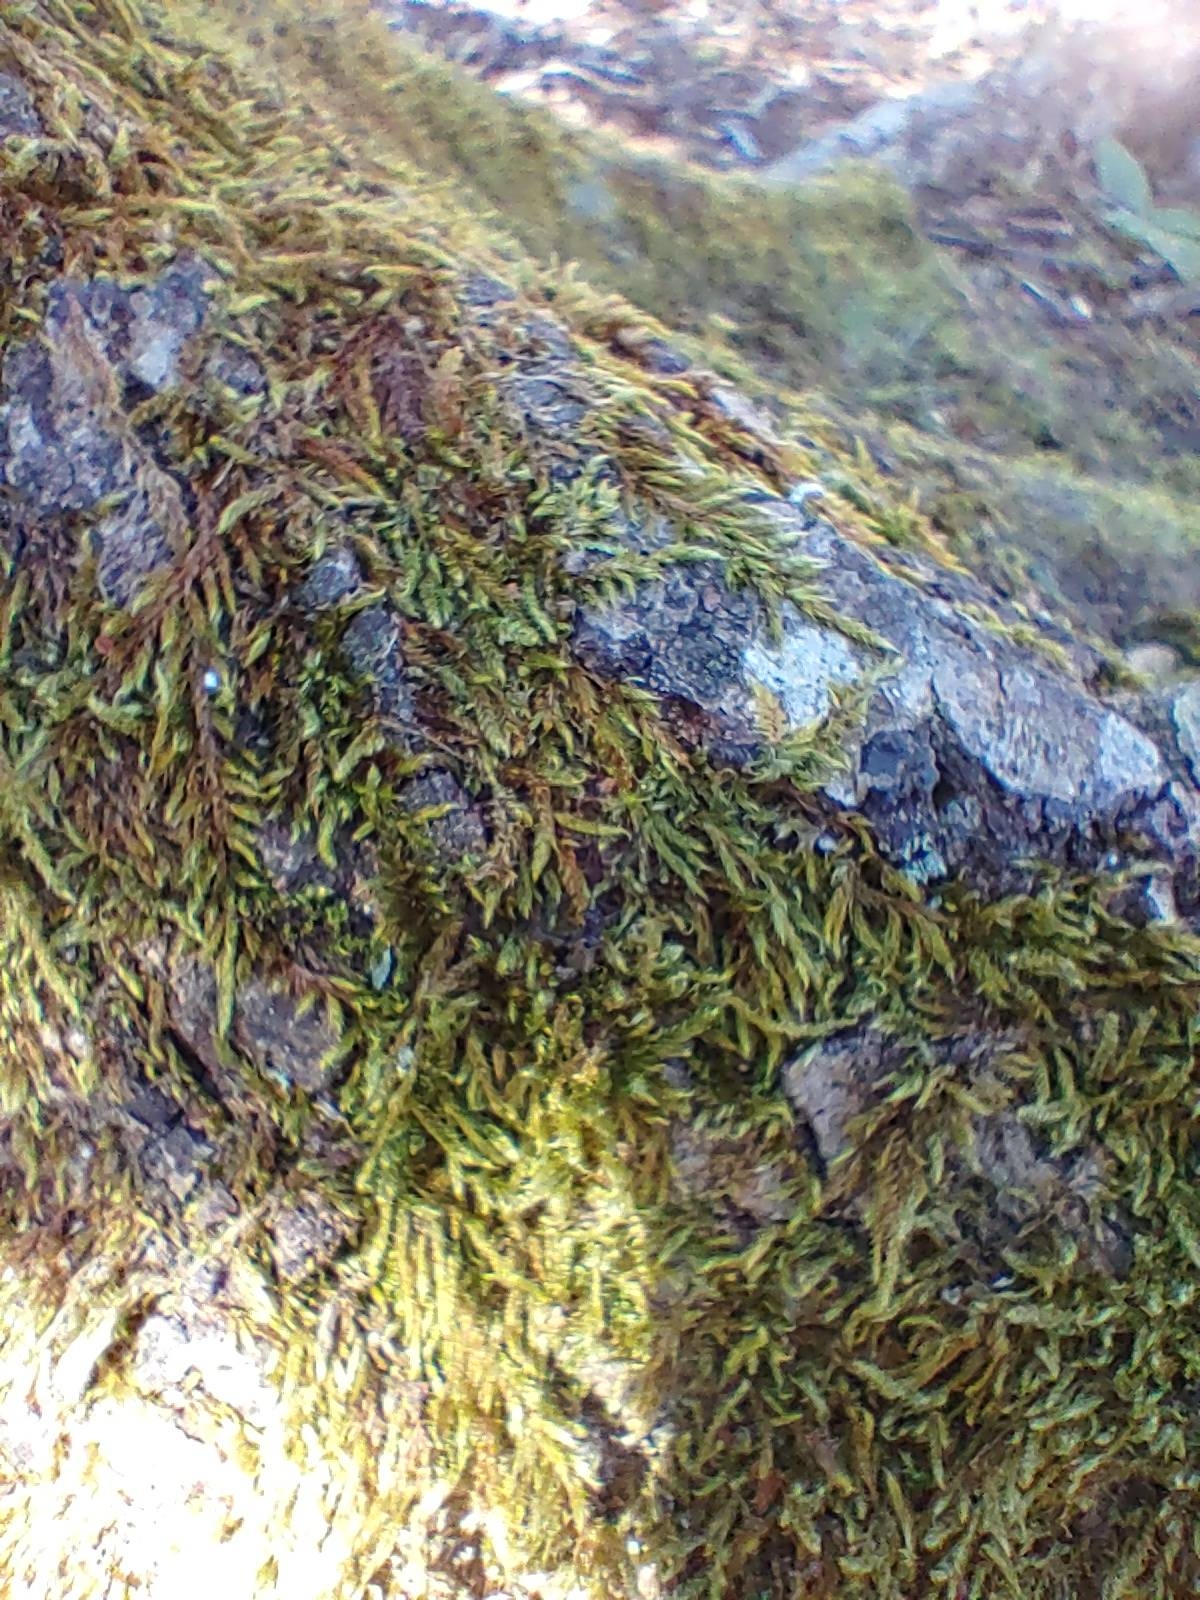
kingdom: Plantae
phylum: Bryophyta
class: Bryopsida
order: Hypnales
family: Hypnaceae
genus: Hypnum
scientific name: Hypnum cupressiforme
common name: Almindelig cypresmos
